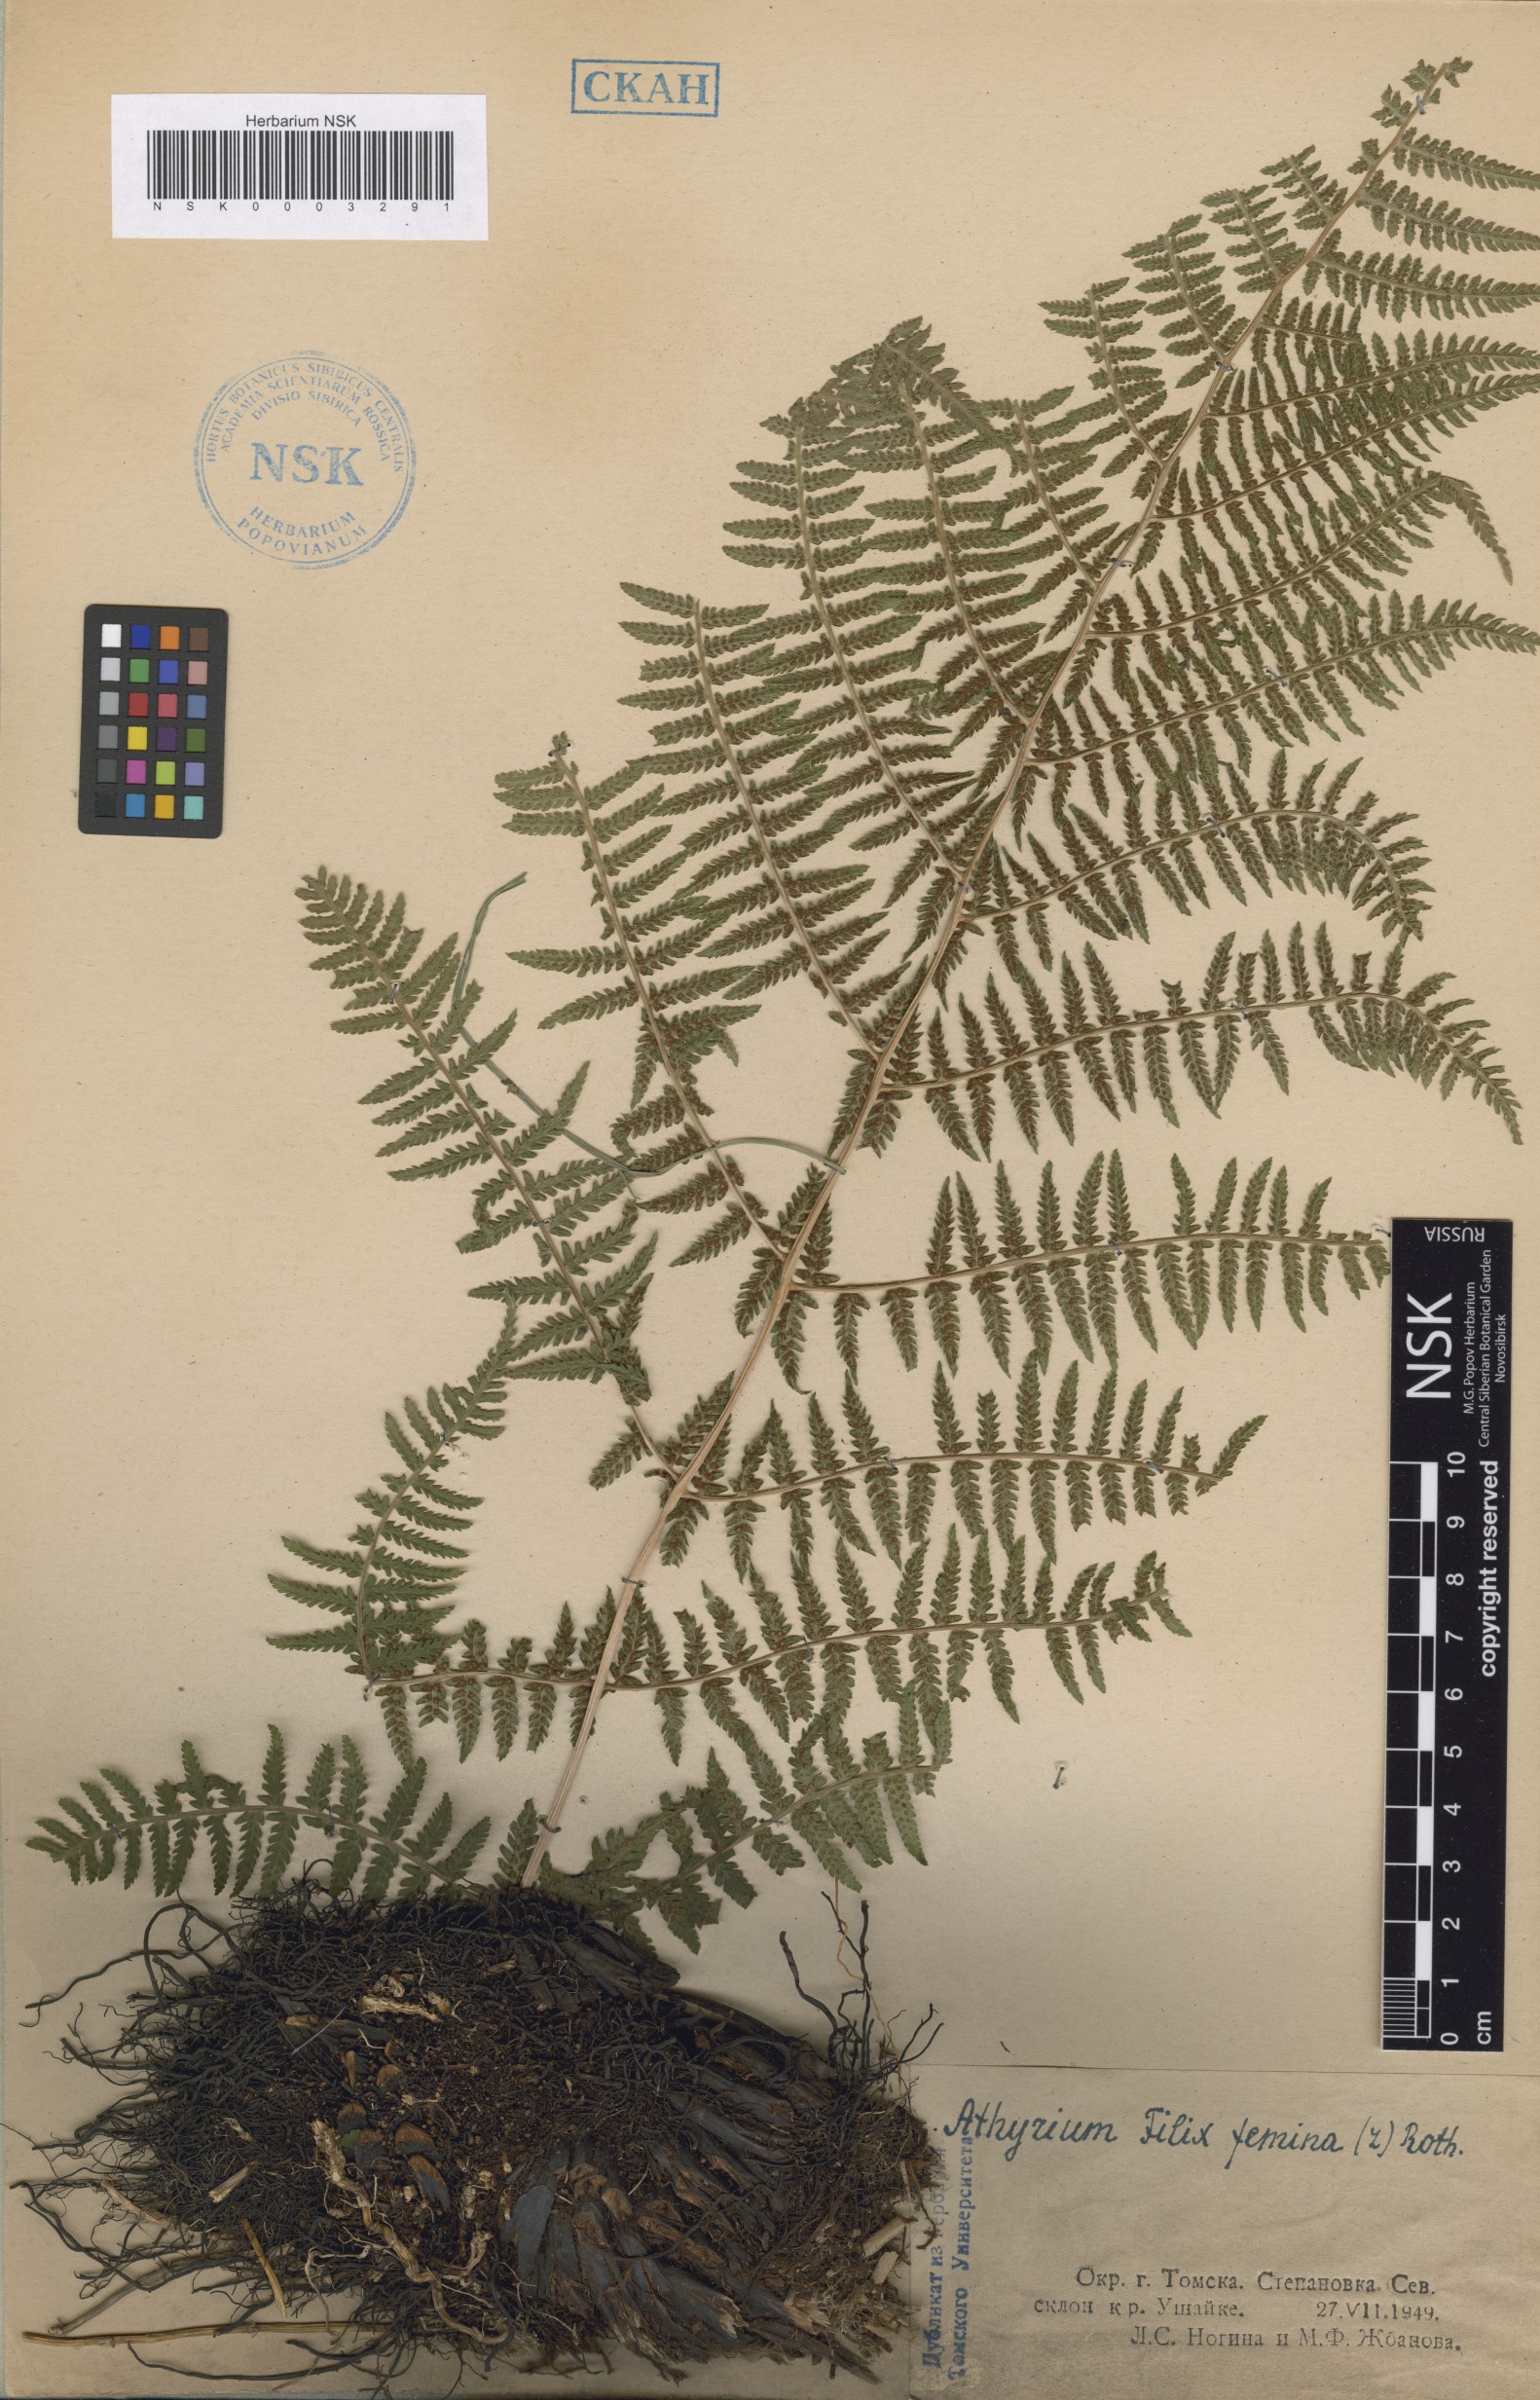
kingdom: Plantae
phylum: Tracheophyta
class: Polypodiopsida
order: Polypodiales
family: Athyriaceae
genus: Athyrium
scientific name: Athyrium filix-femina
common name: Lady fern
